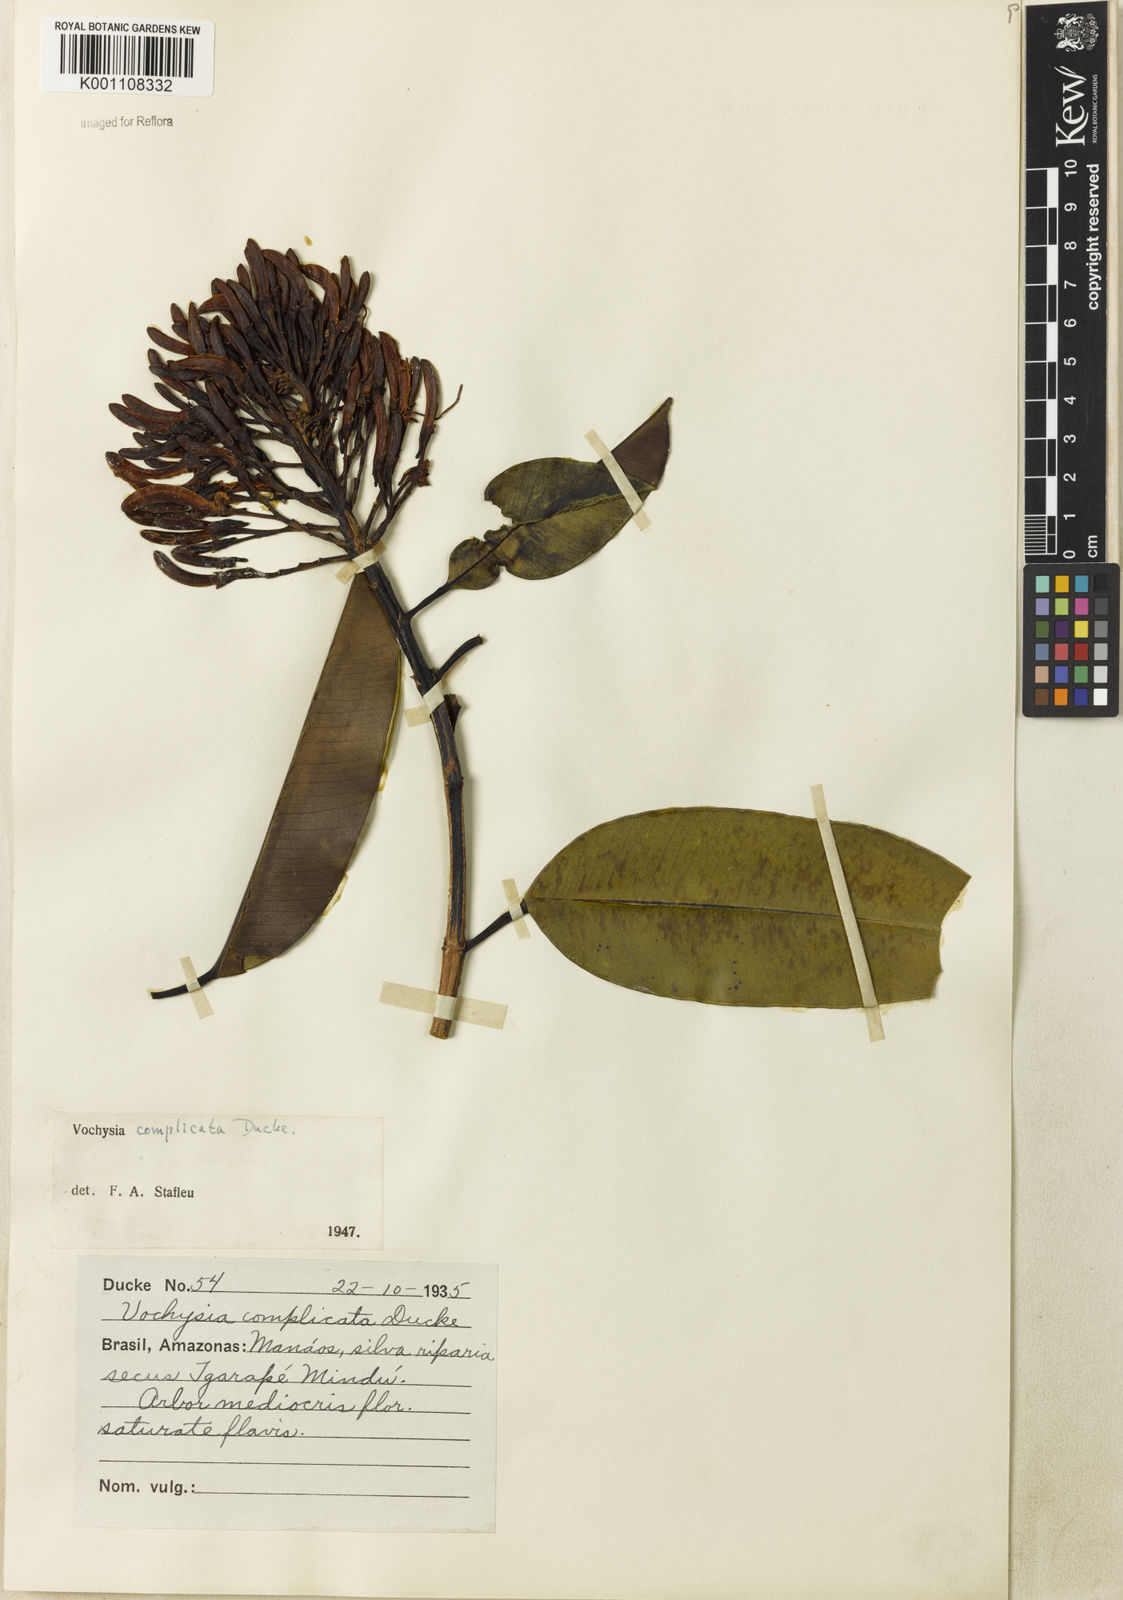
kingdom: Plantae
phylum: Tracheophyta
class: Magnoliopsida
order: Myrtales
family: Vochysiaceae
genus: Vochysia
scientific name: Vochysia complicata
